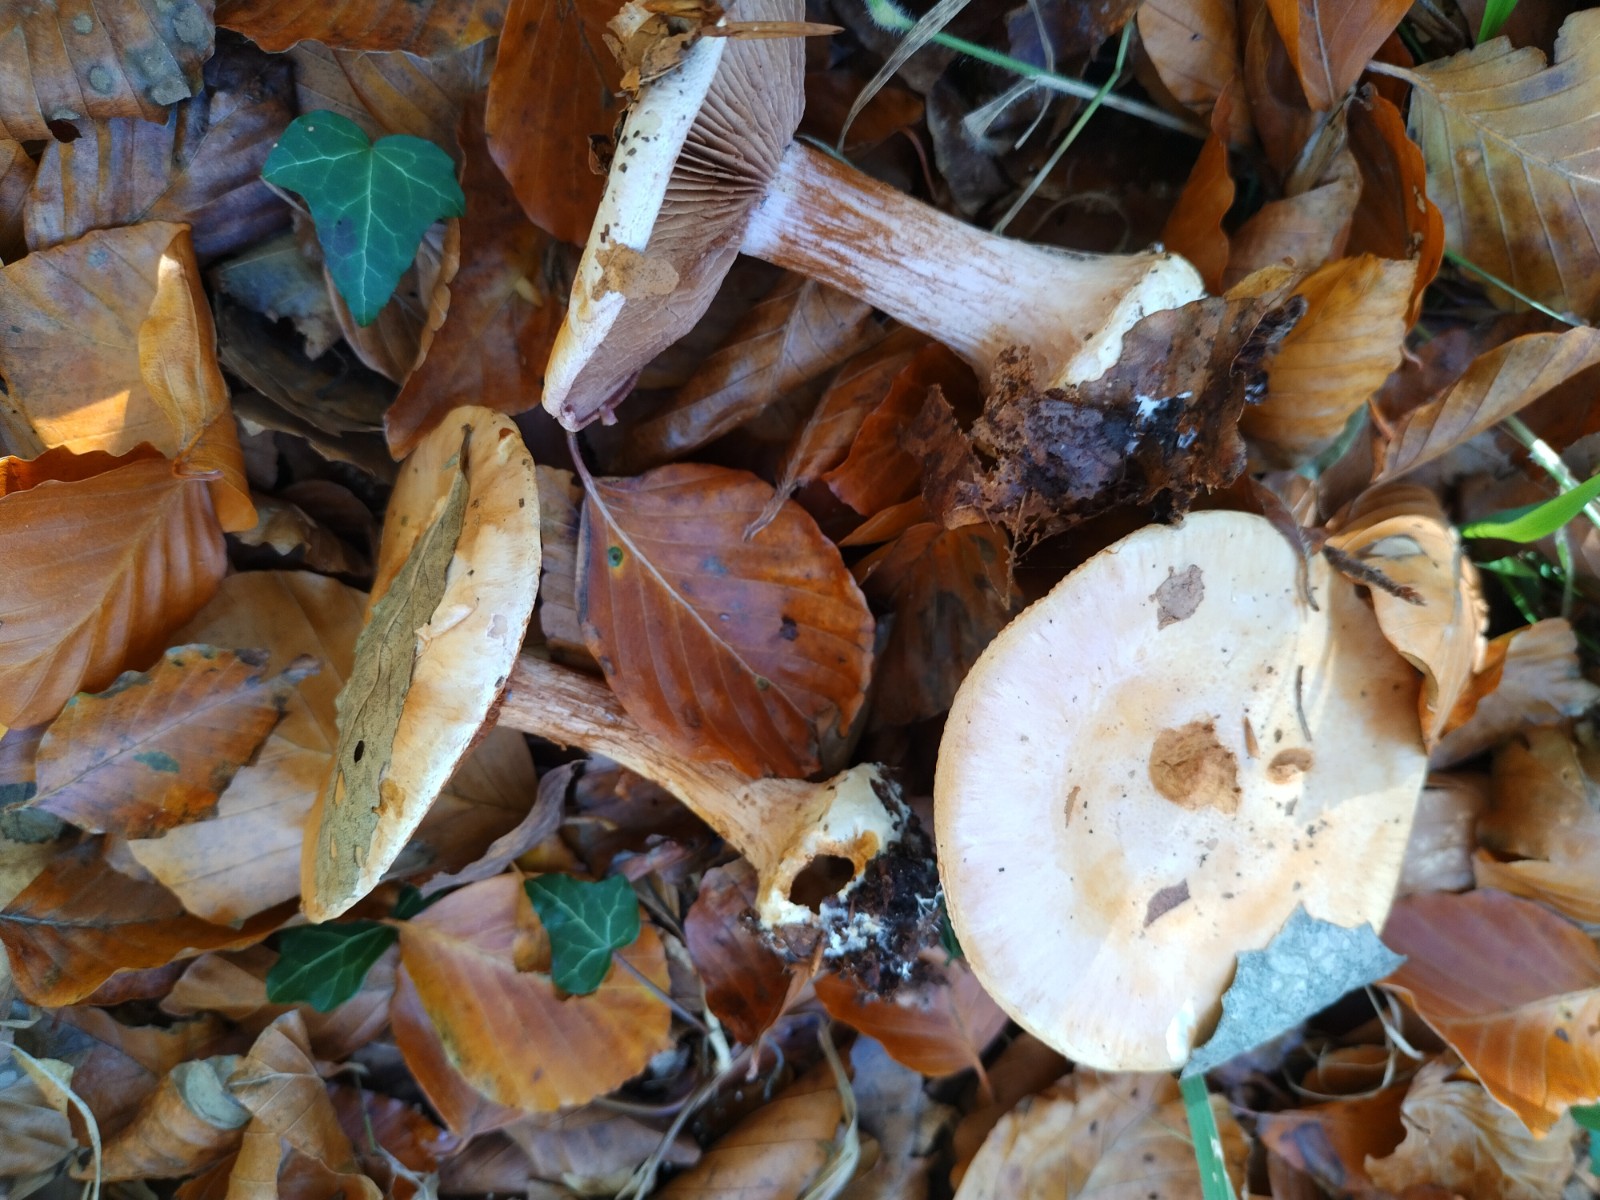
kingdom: Fungi
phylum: Basidiomycota
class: Agaricomycetes
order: Agaricales
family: Cortinariaceae
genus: Calonarius
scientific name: Calonarius suaveolens
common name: sødtduftende slørhat
